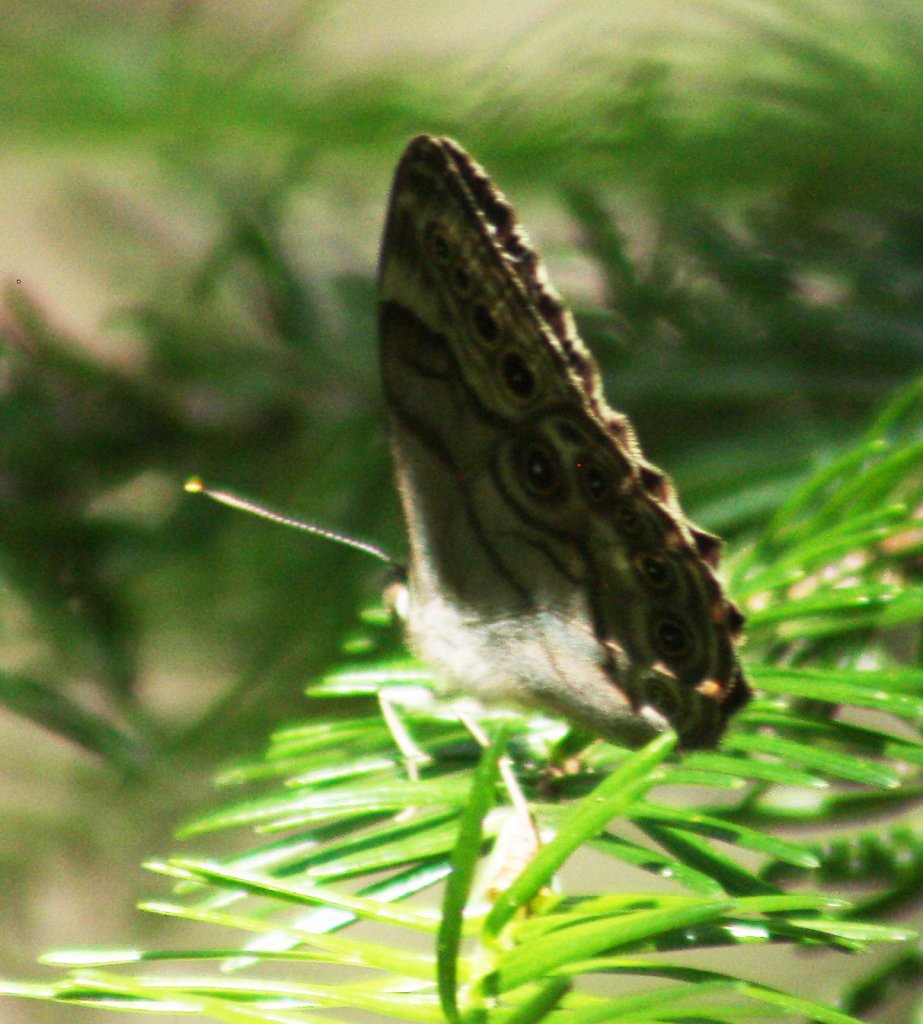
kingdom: Animalia
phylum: Arthropoda
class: Insecta
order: Lepidoptera
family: Nymphalidae
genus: Lethe
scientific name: Lethe anthedon
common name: Northern Pearly-Eye
